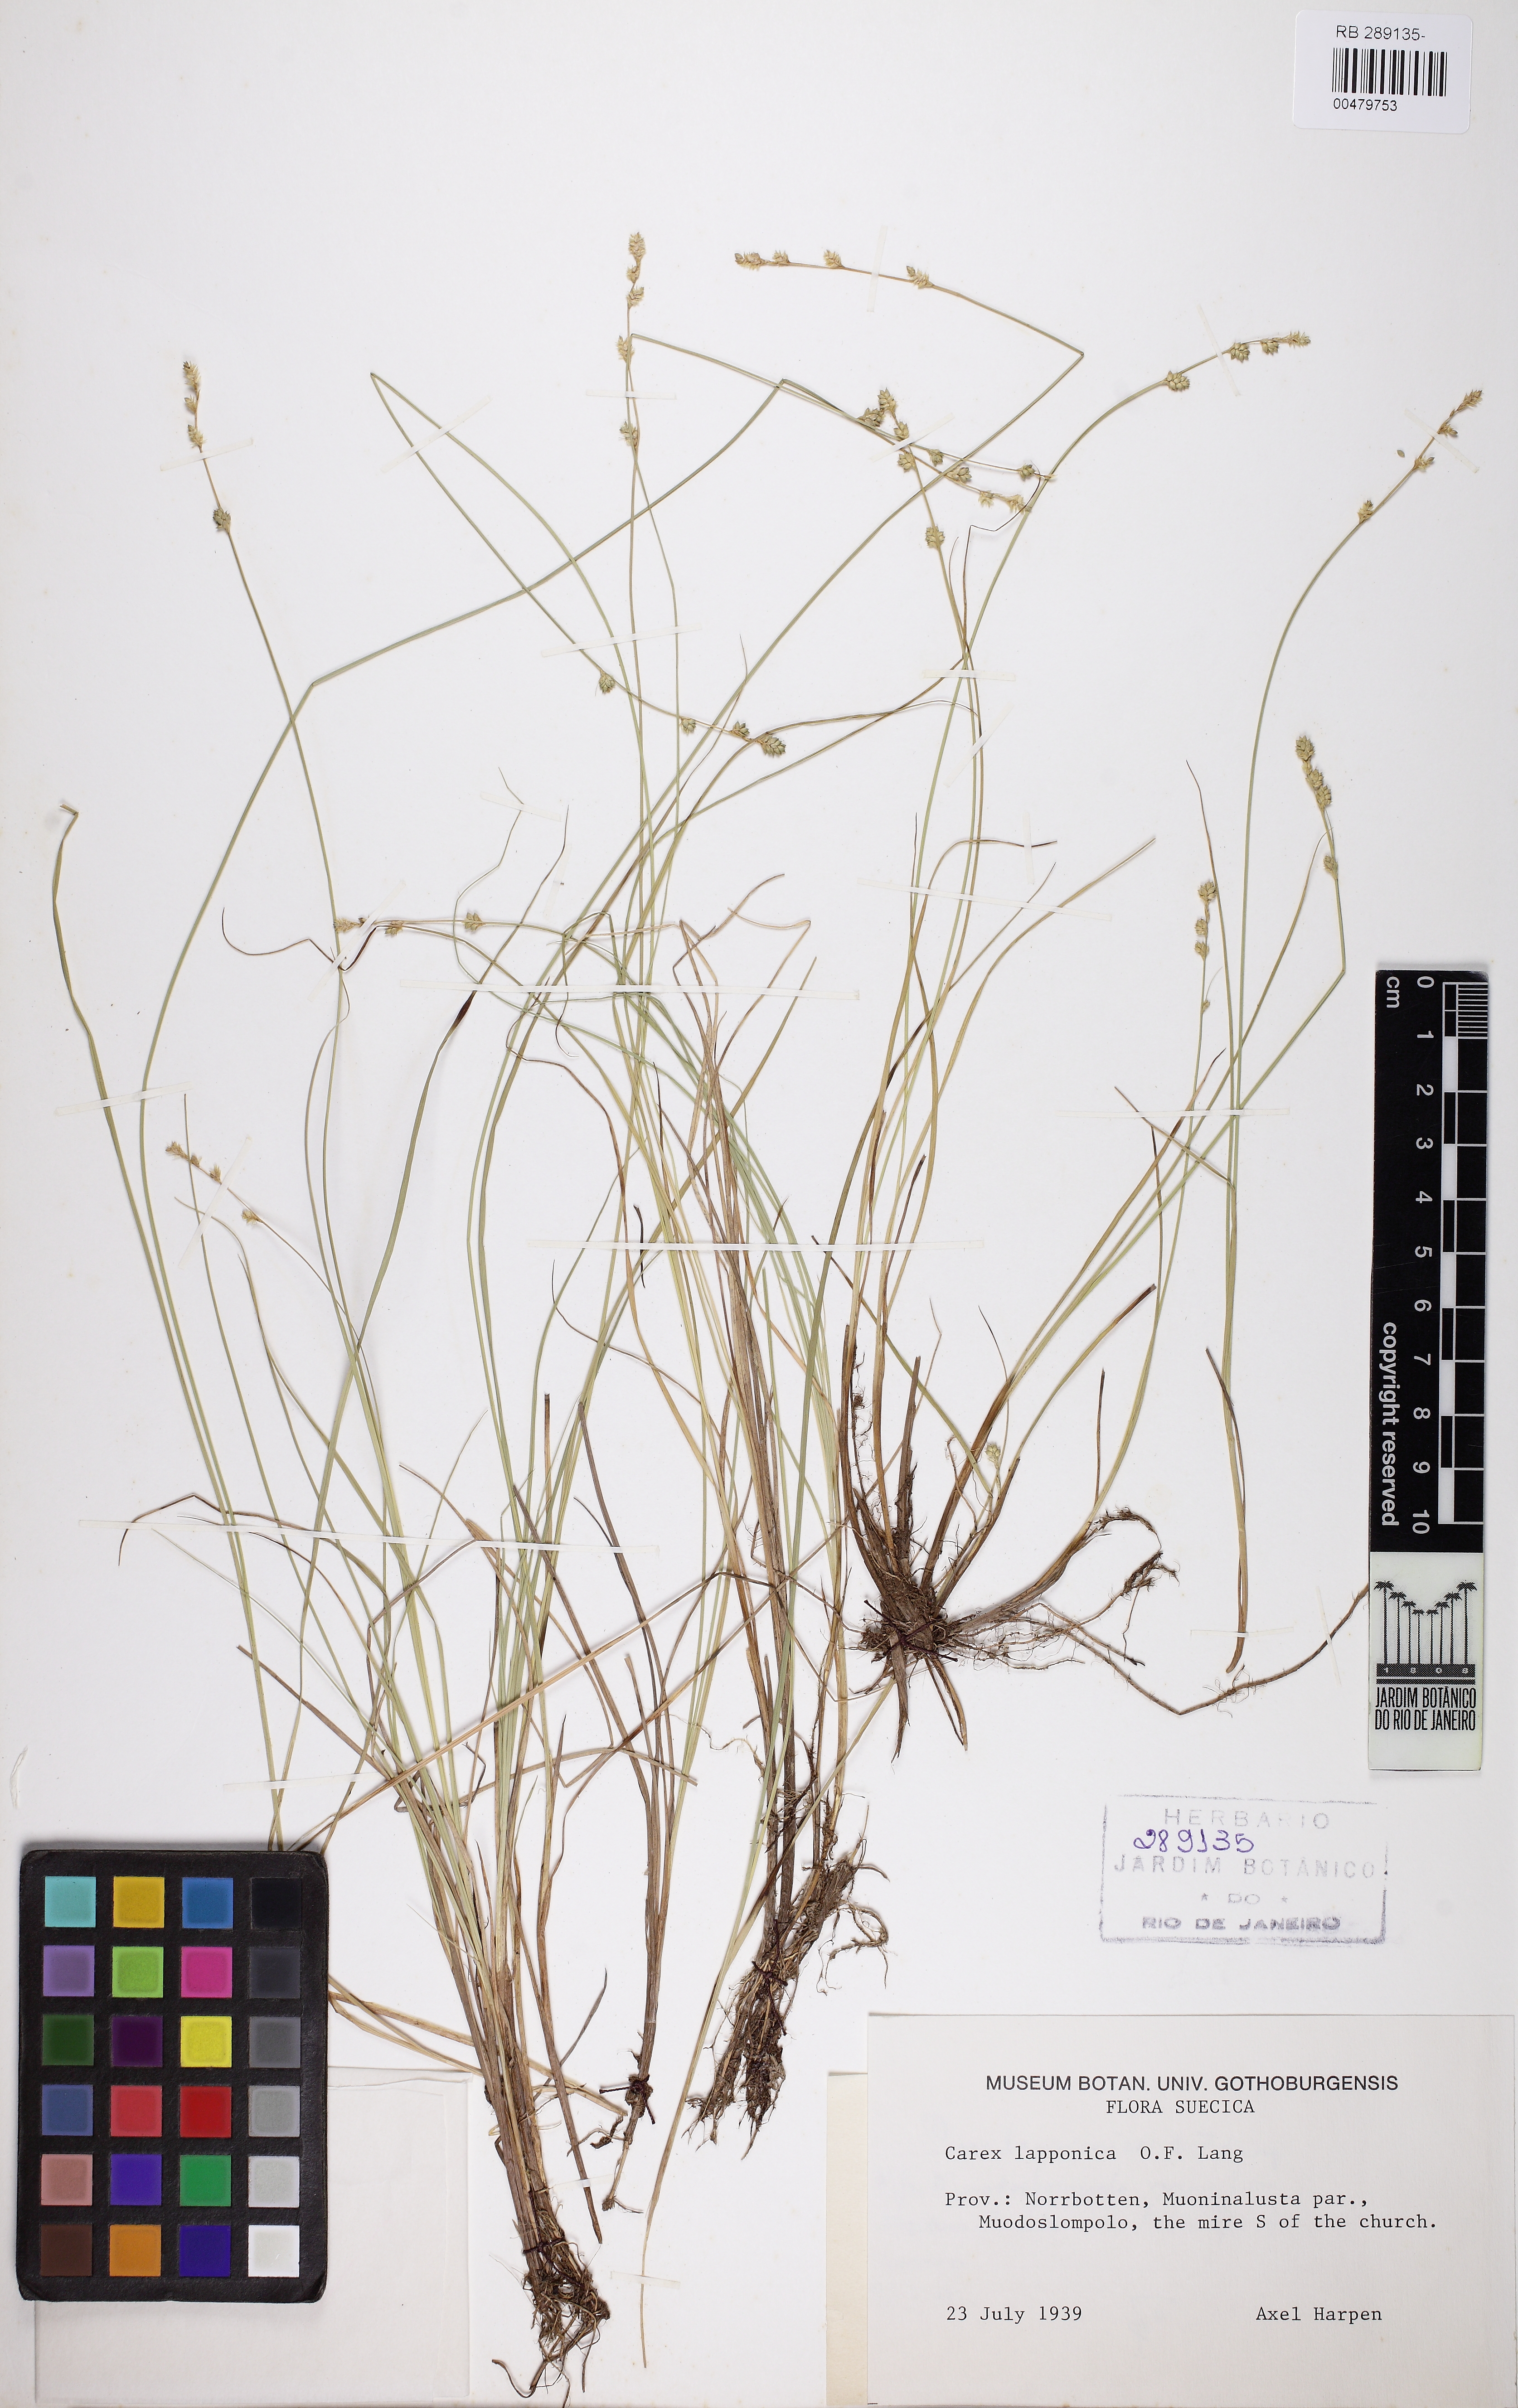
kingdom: Plantae
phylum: Tracheophyta
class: Liliopsida
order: Poales
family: Cyperaceae
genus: Carex
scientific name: Carex lapponica
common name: Lapland sedge
